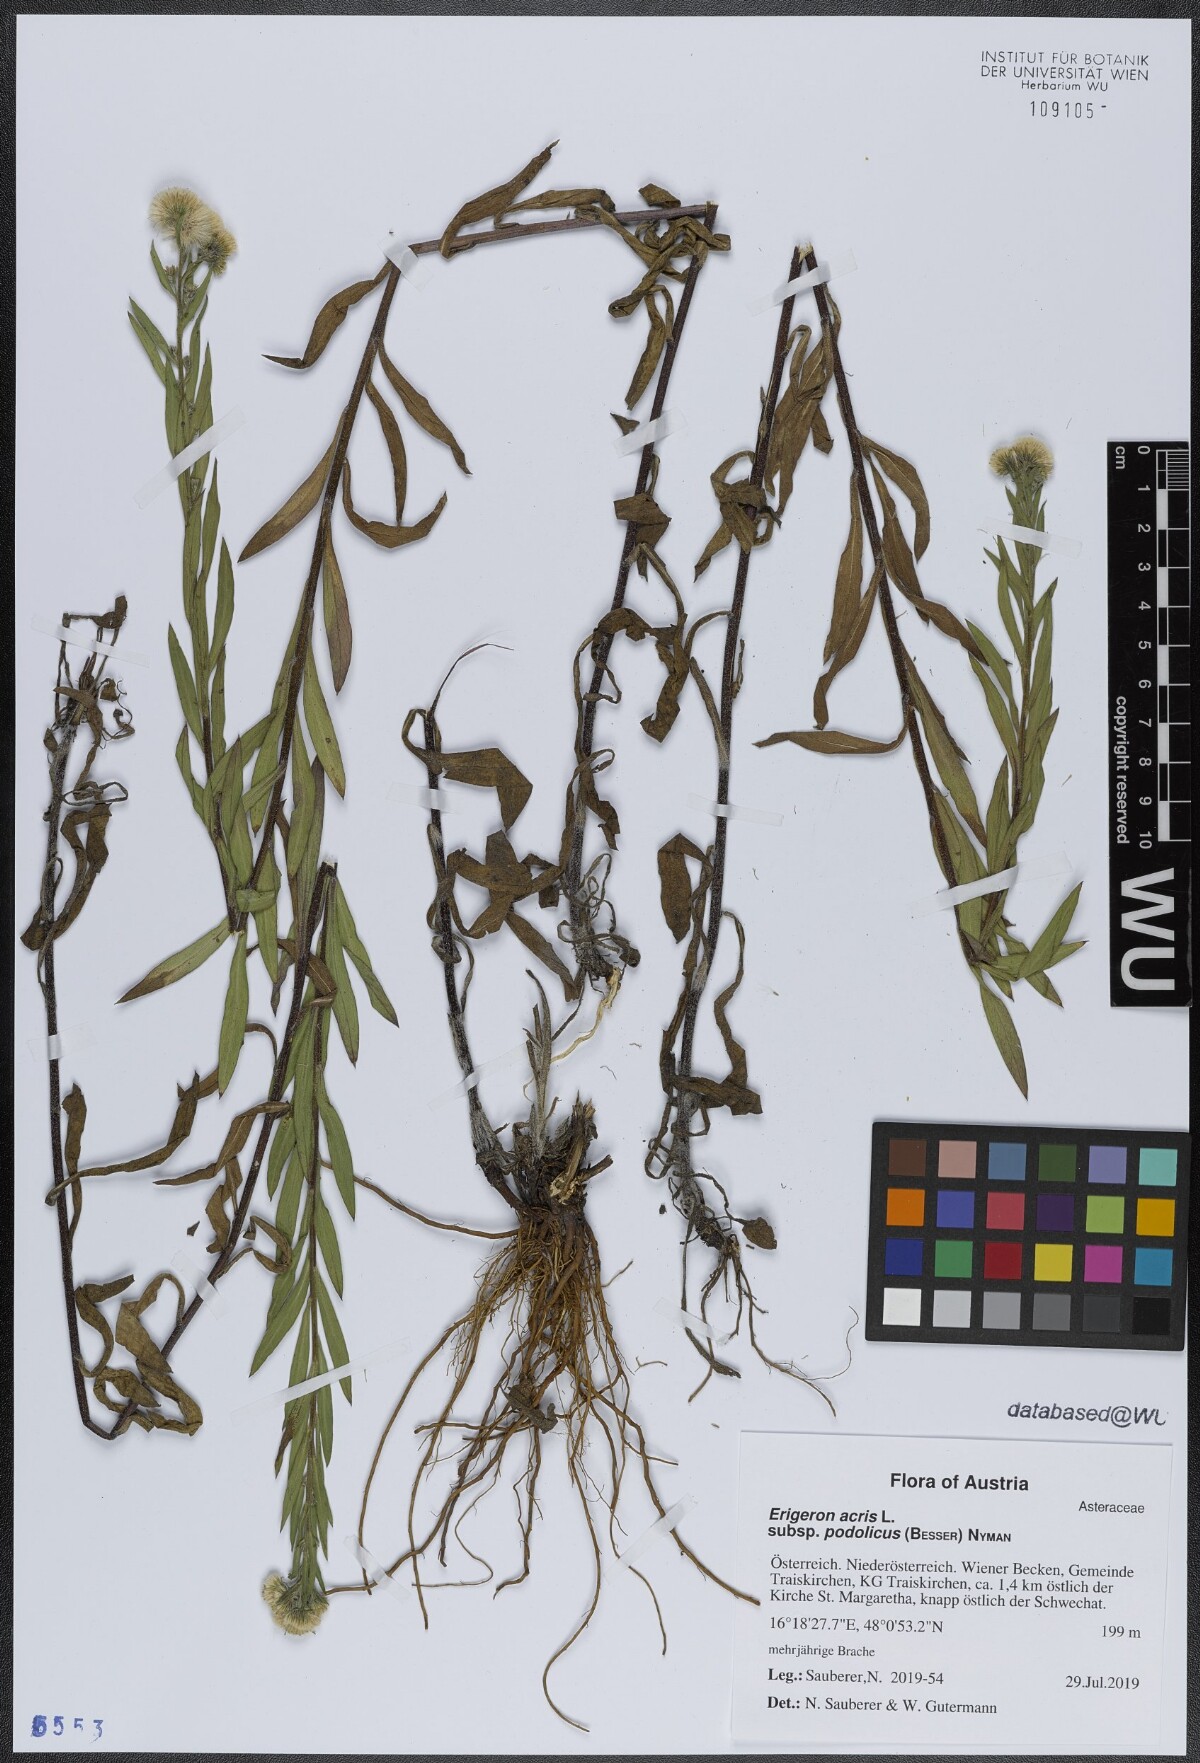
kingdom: Plantae
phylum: Tracheophyta
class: Magnoliopsida
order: Asterales
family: Asteraceae
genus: Erigeron
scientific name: Erigeron podolicus
